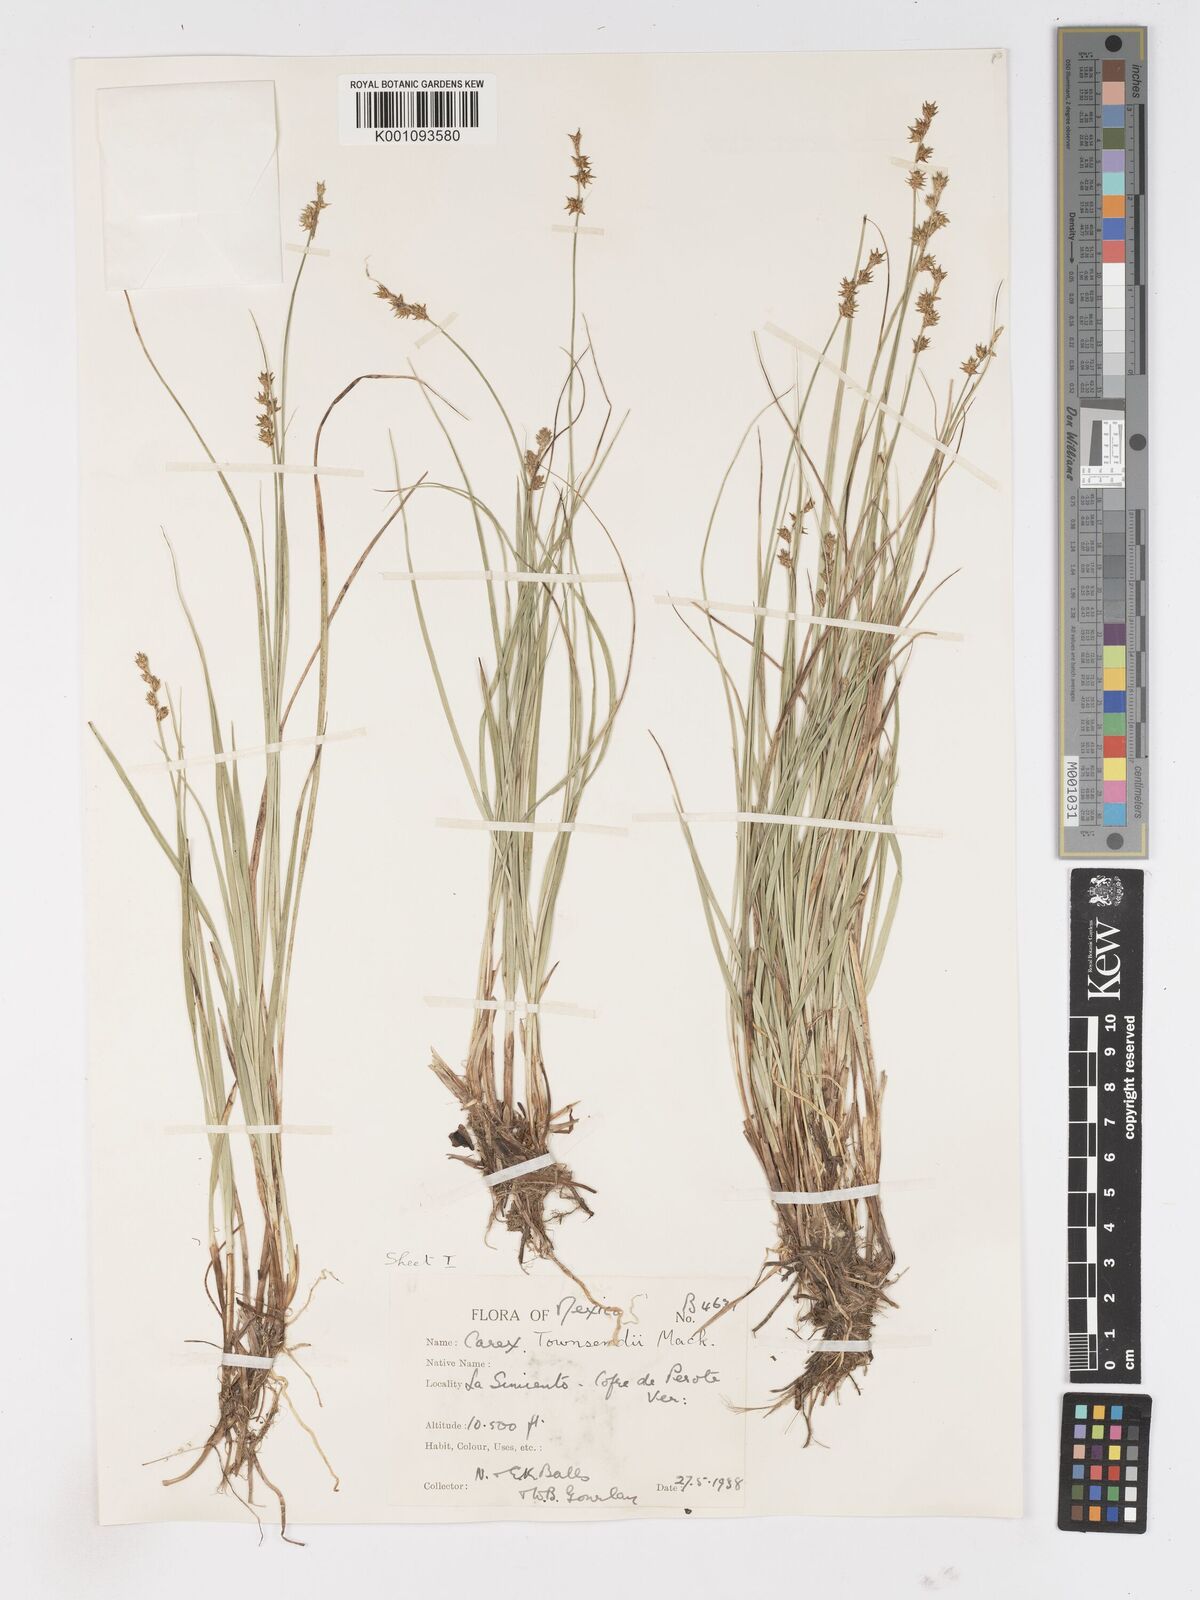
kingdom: Plantae
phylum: Tracheophyta
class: Liliopsida
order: Poales
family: Cyperaceae
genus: Carex
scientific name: Carex townsendii
